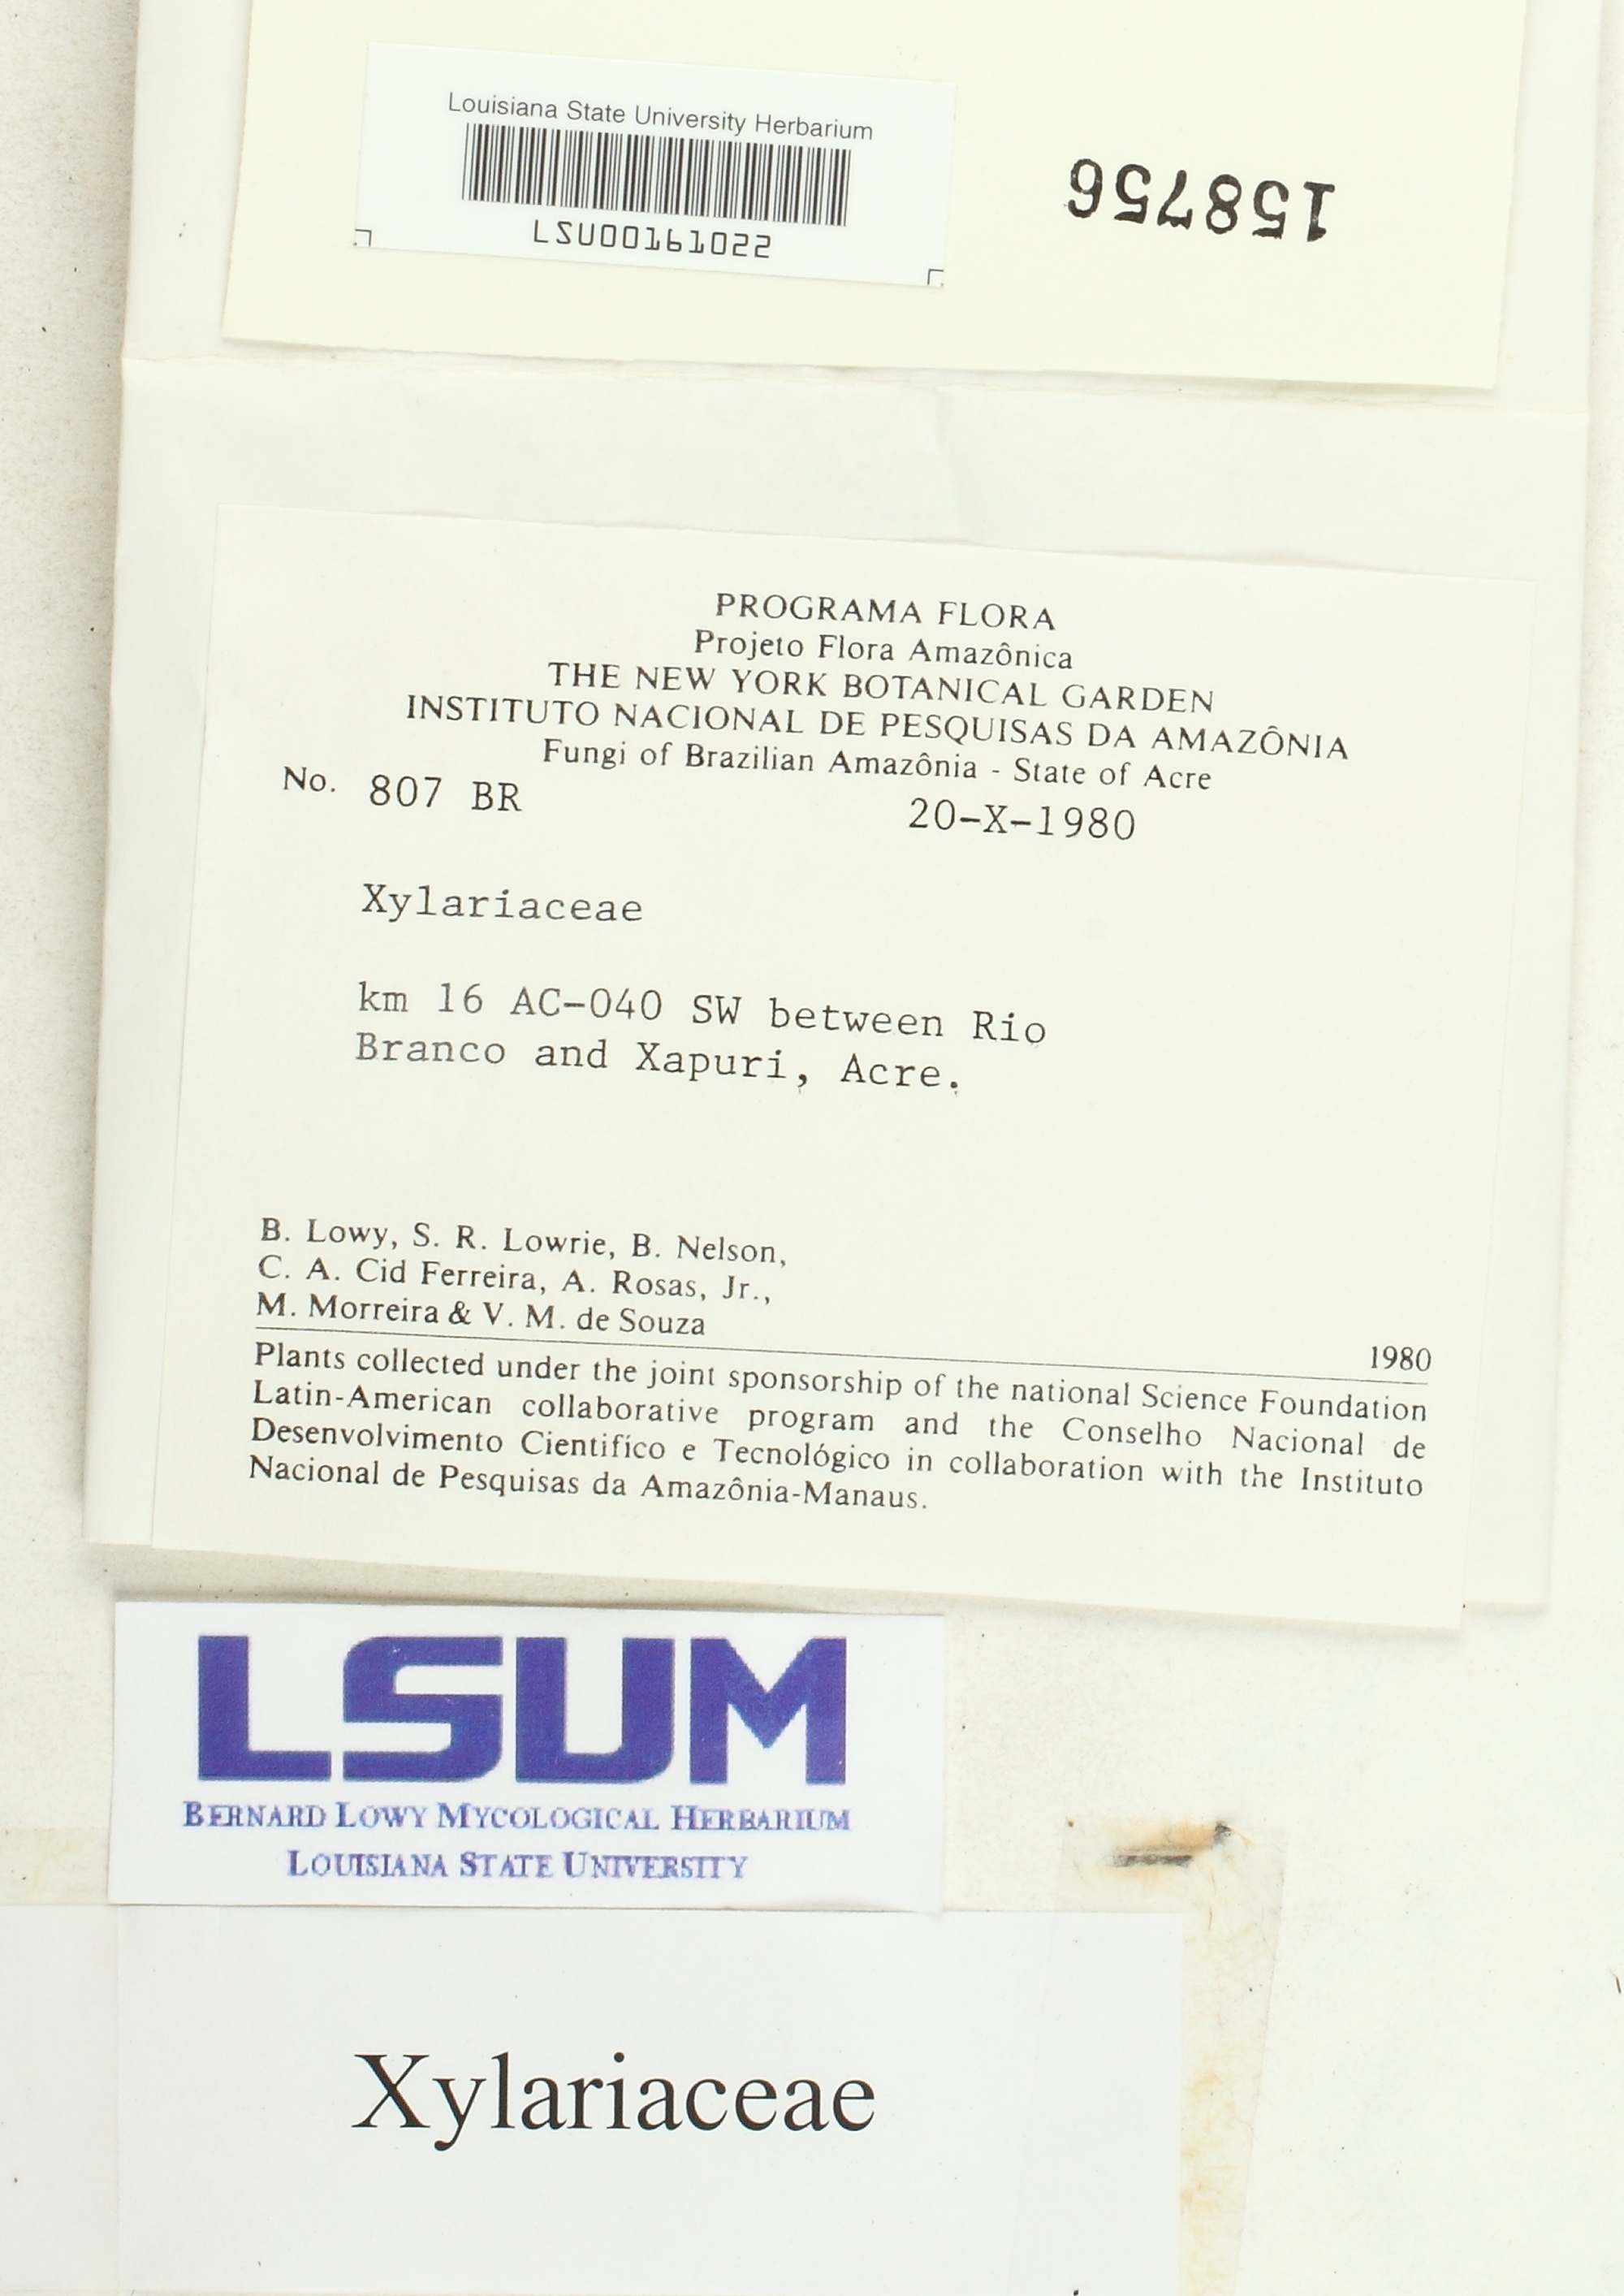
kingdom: Fungi
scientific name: Fungi
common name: Fungi
